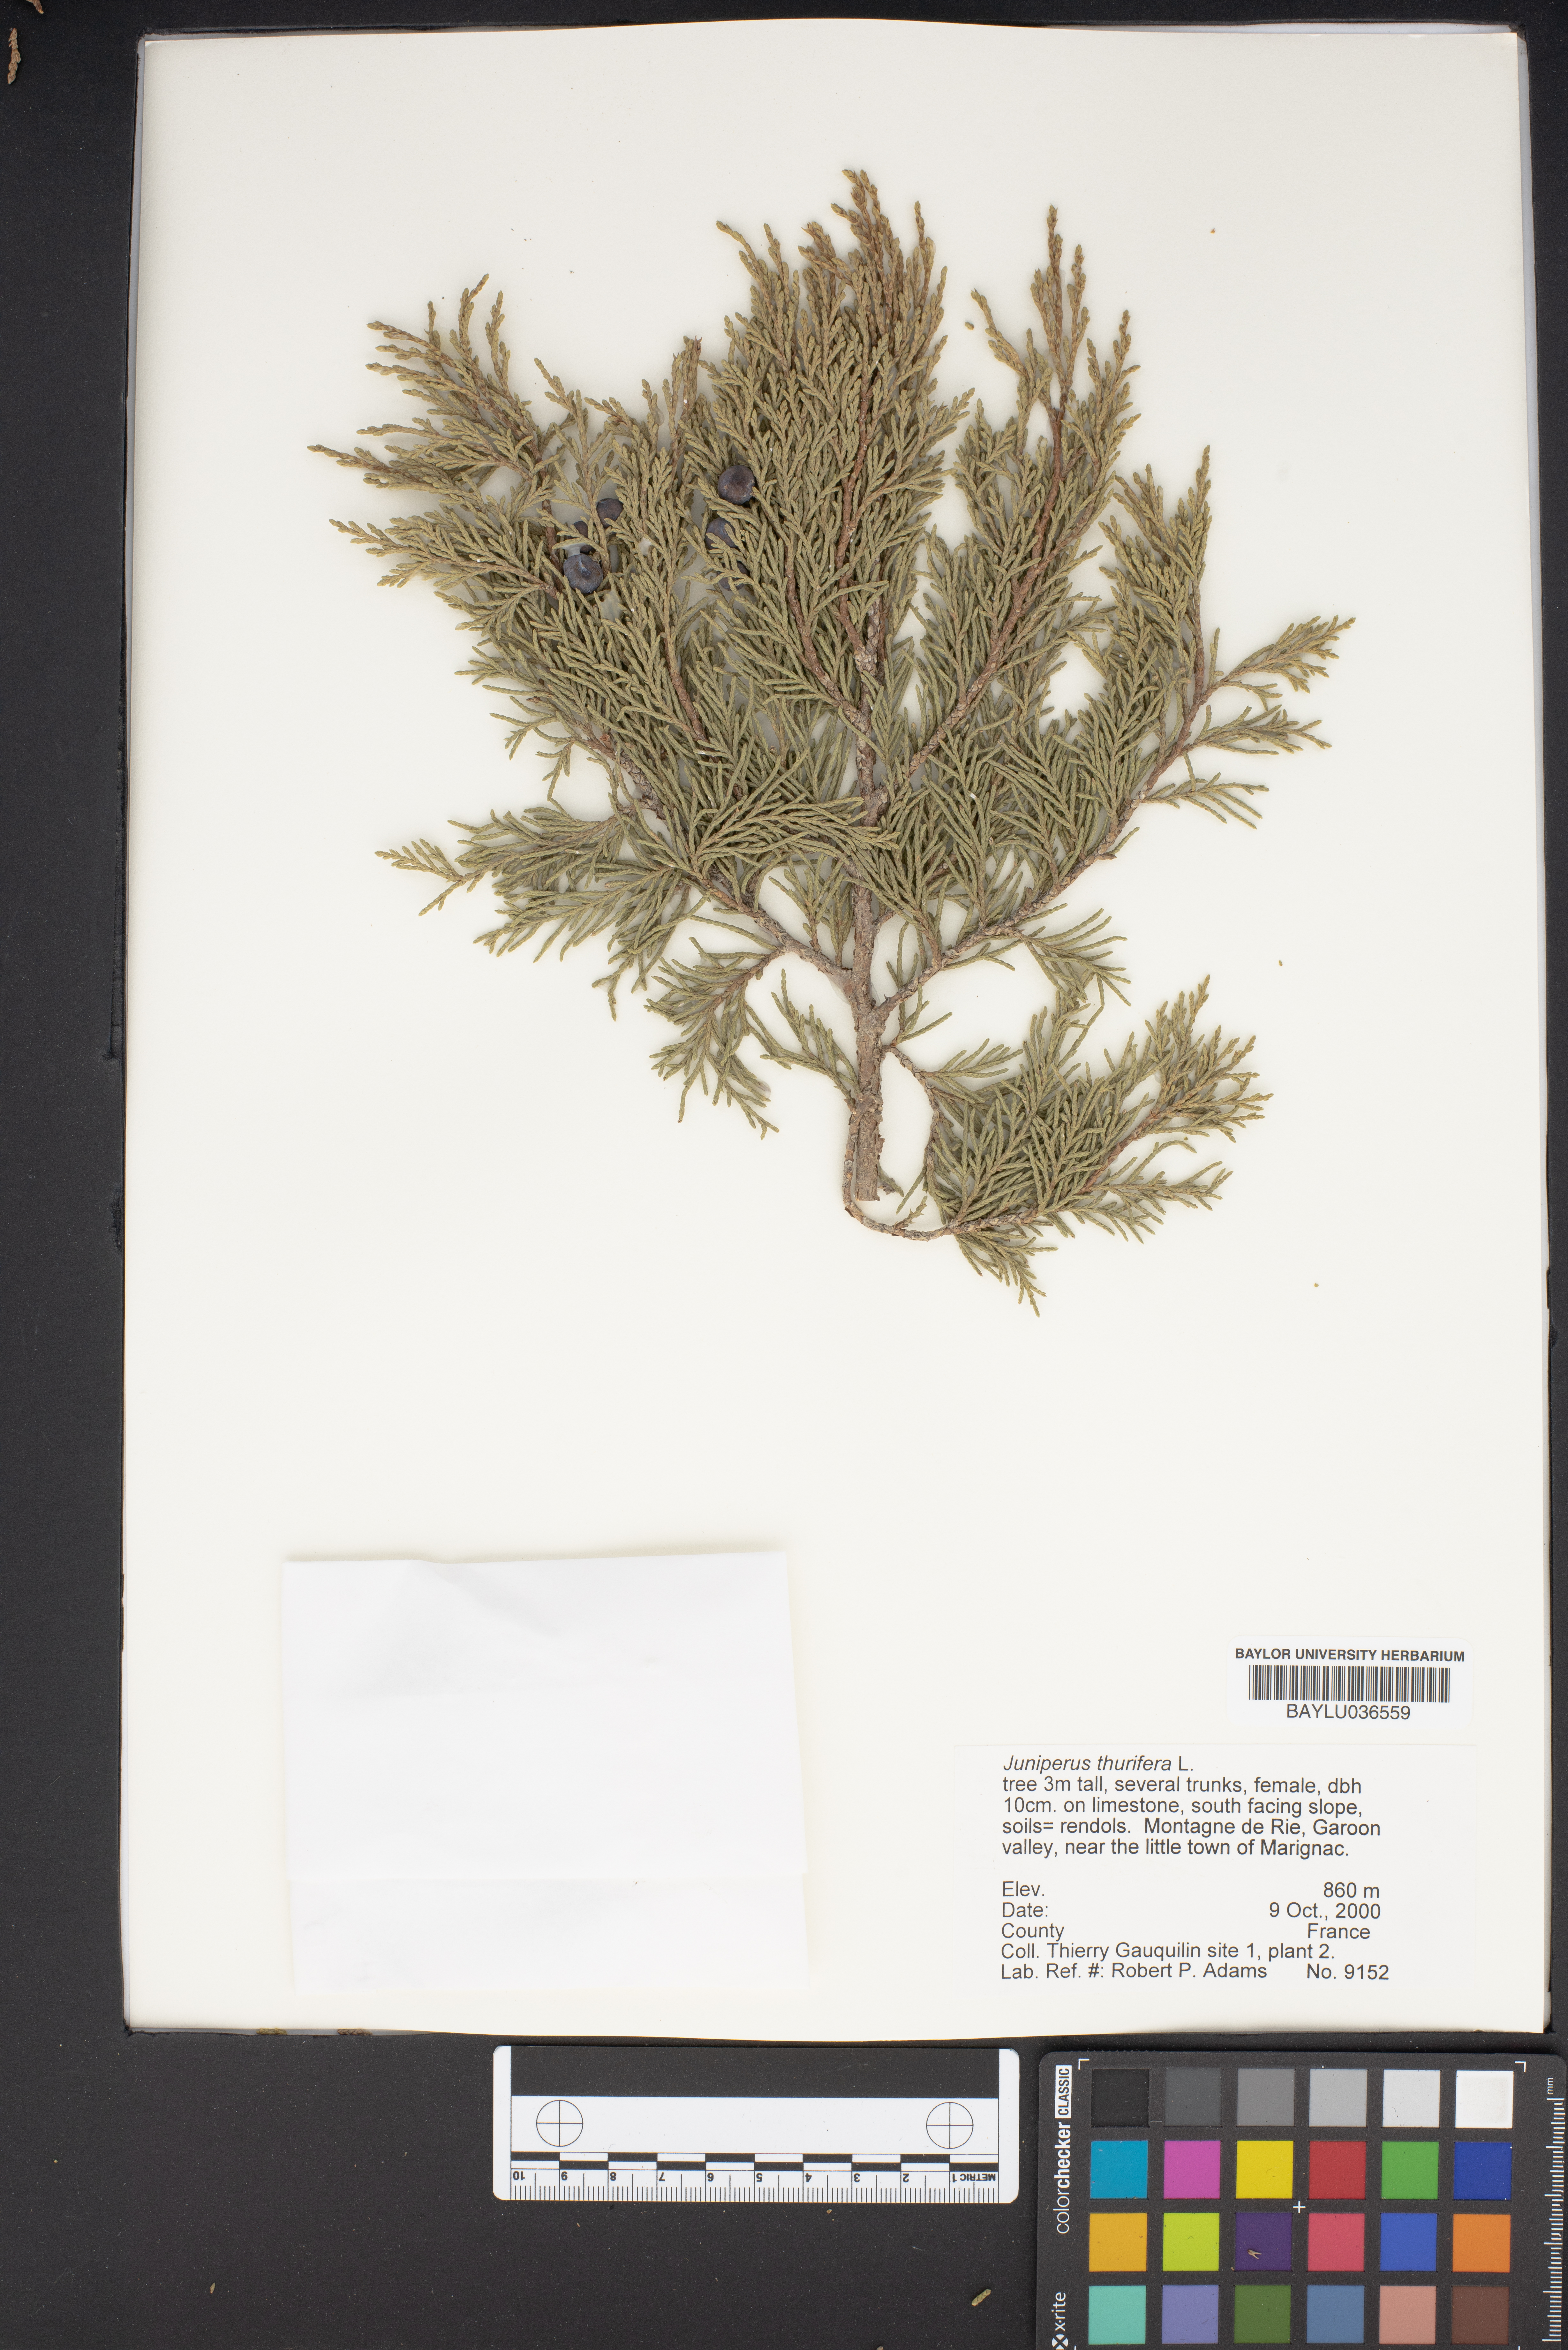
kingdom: Plantae
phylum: Tracheophyta
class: Pinopsida
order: Pinales
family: Cupressaceae
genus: Juniperus
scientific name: Juniperus thurifera
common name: Incense juniper
